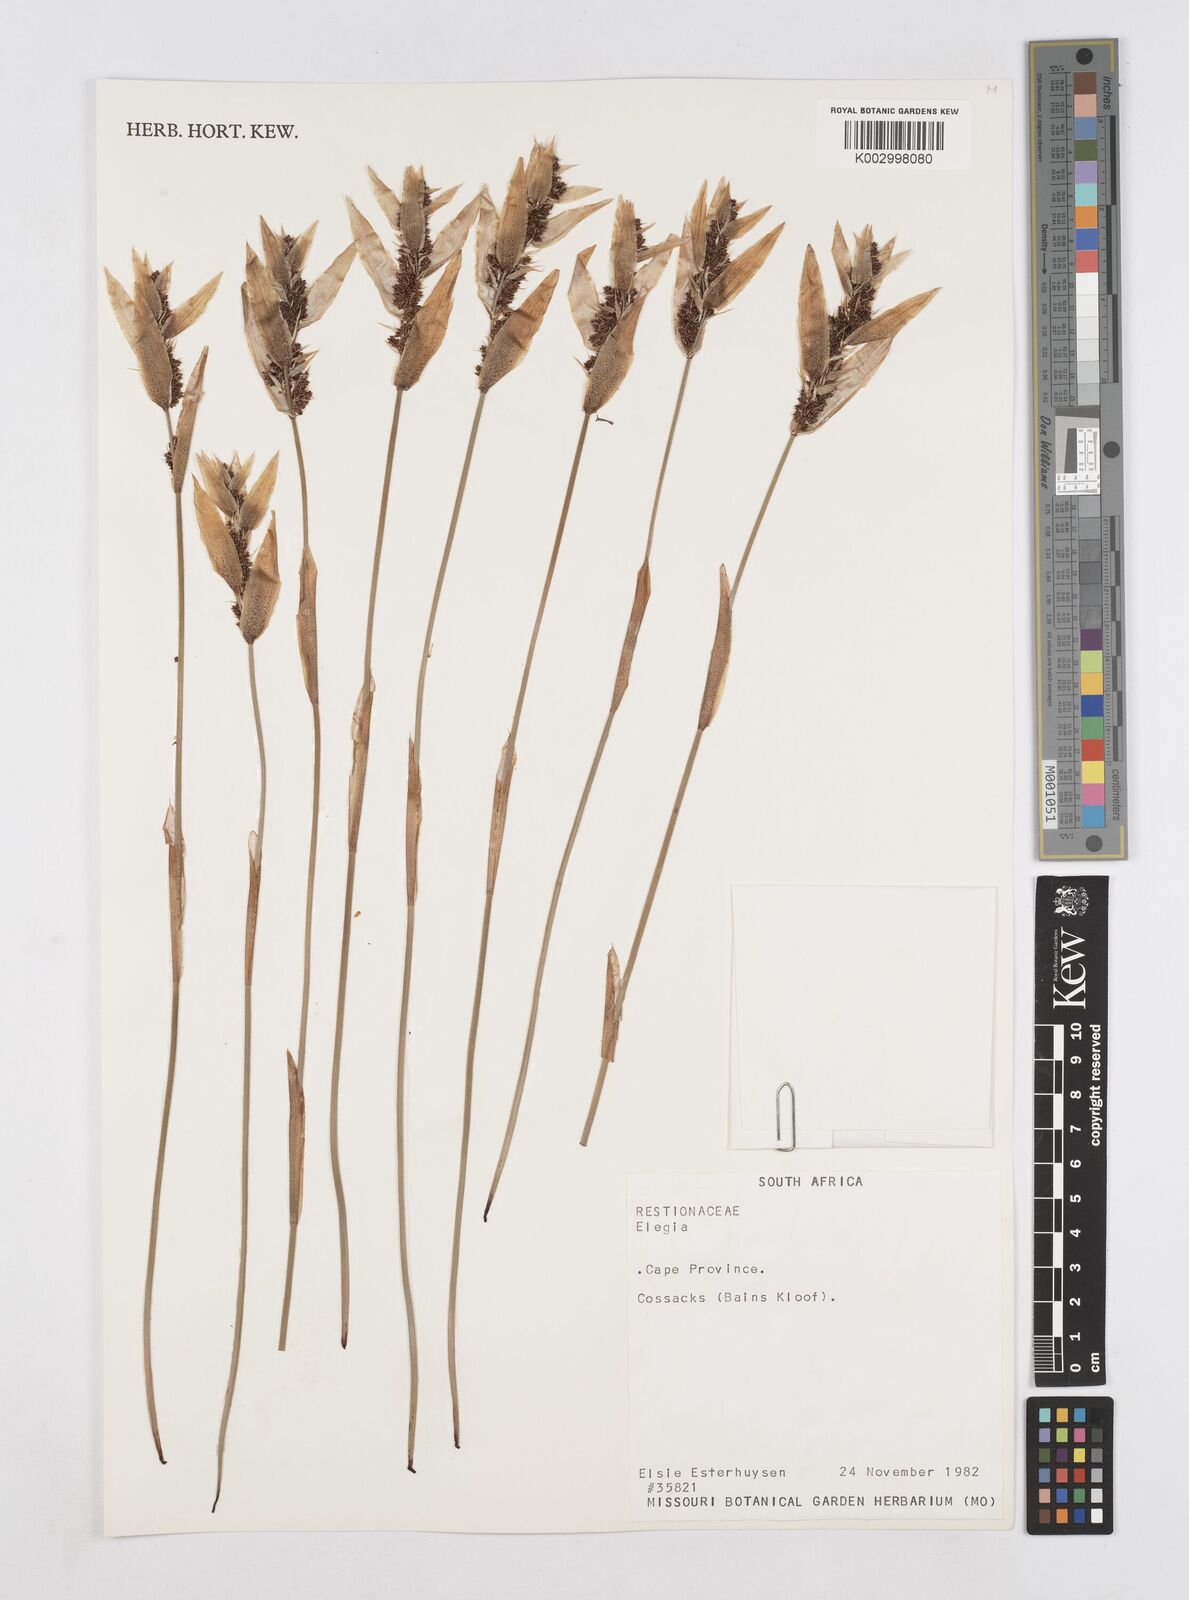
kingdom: Plantae
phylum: Tracheophyta
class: Liliopsida
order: Poales
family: Restionaceae
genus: Elegia
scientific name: Elegia
